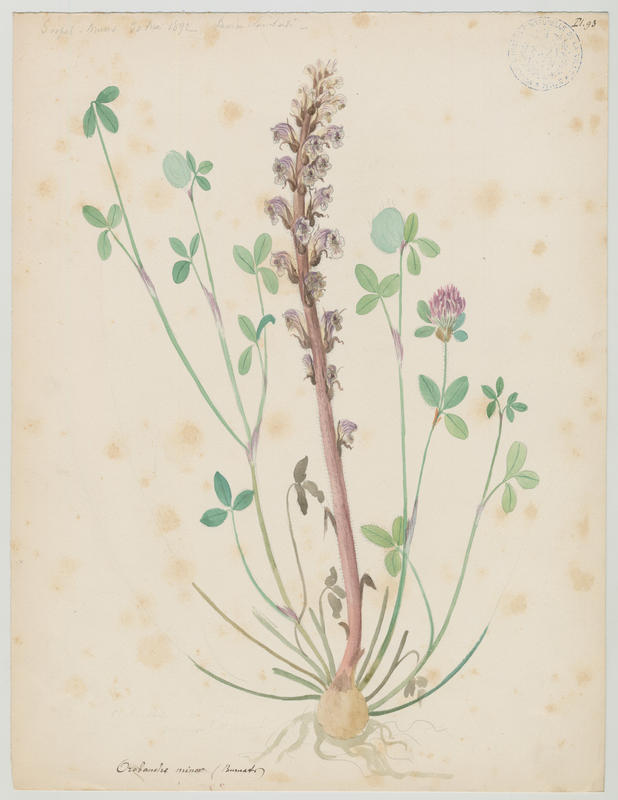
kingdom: Plantae
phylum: Tracheophyta
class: Magnoliopsida
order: Lamiales
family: Orobanchaceae
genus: Orobanche
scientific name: Orobanche minor
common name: Common broomrape
